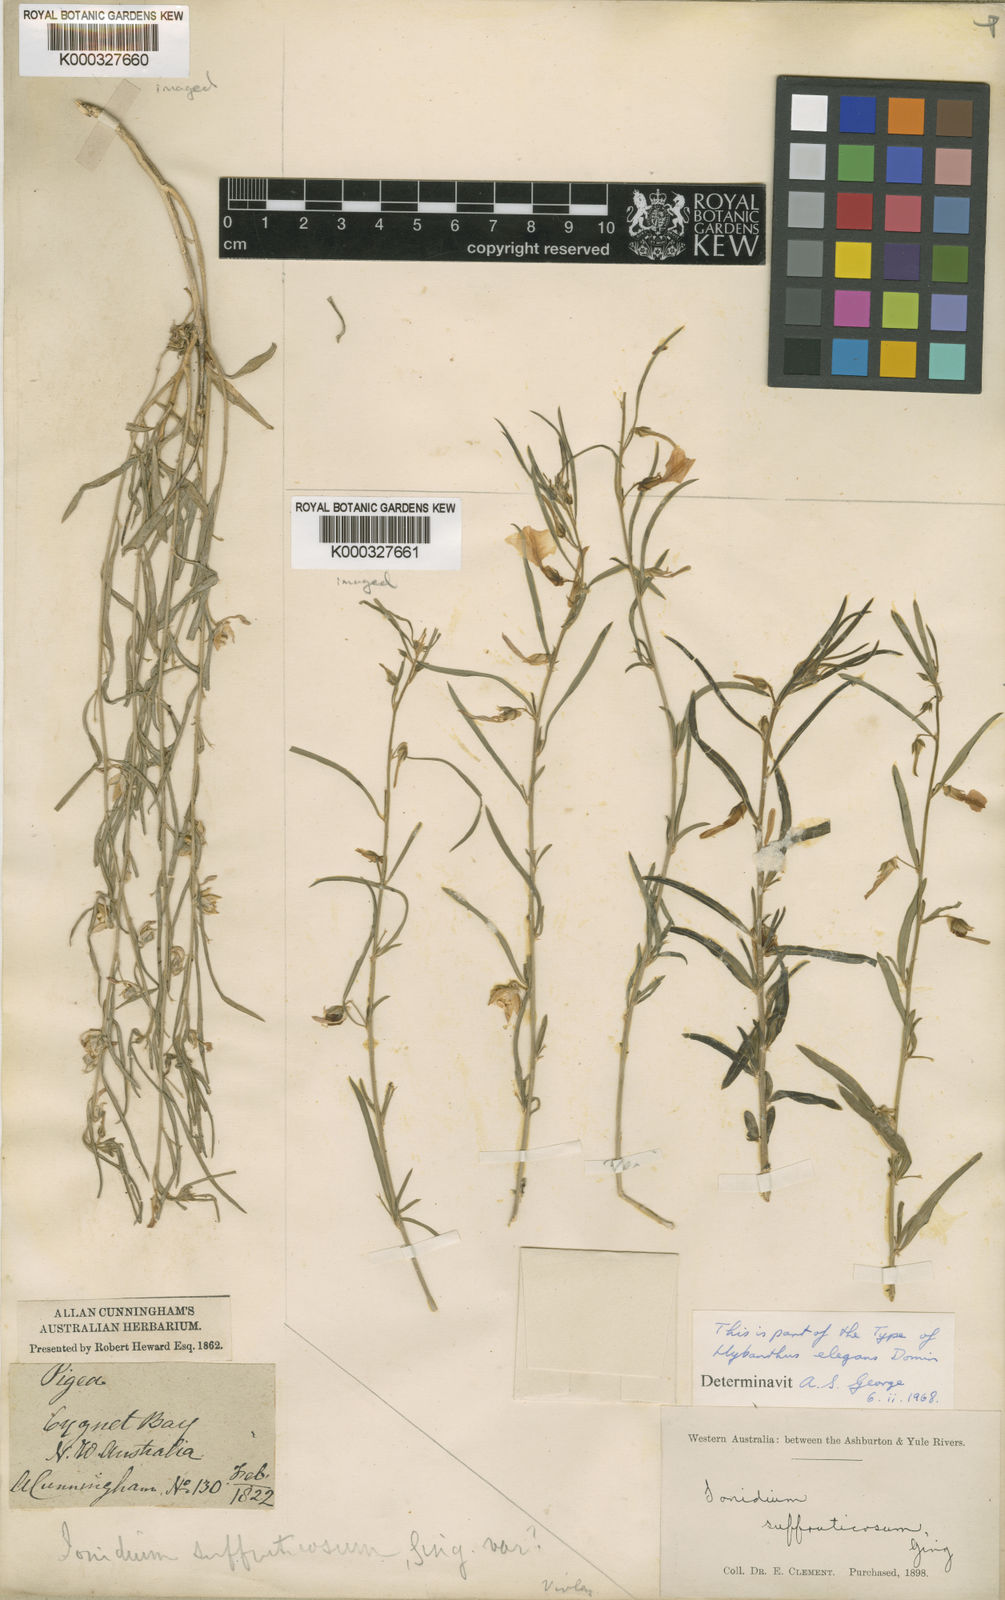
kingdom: Plantae
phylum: Tracheophyta
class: Magnoliopsida
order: Malpighiales
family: Violaceae
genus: Pigea
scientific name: Pigea aurantiaca
